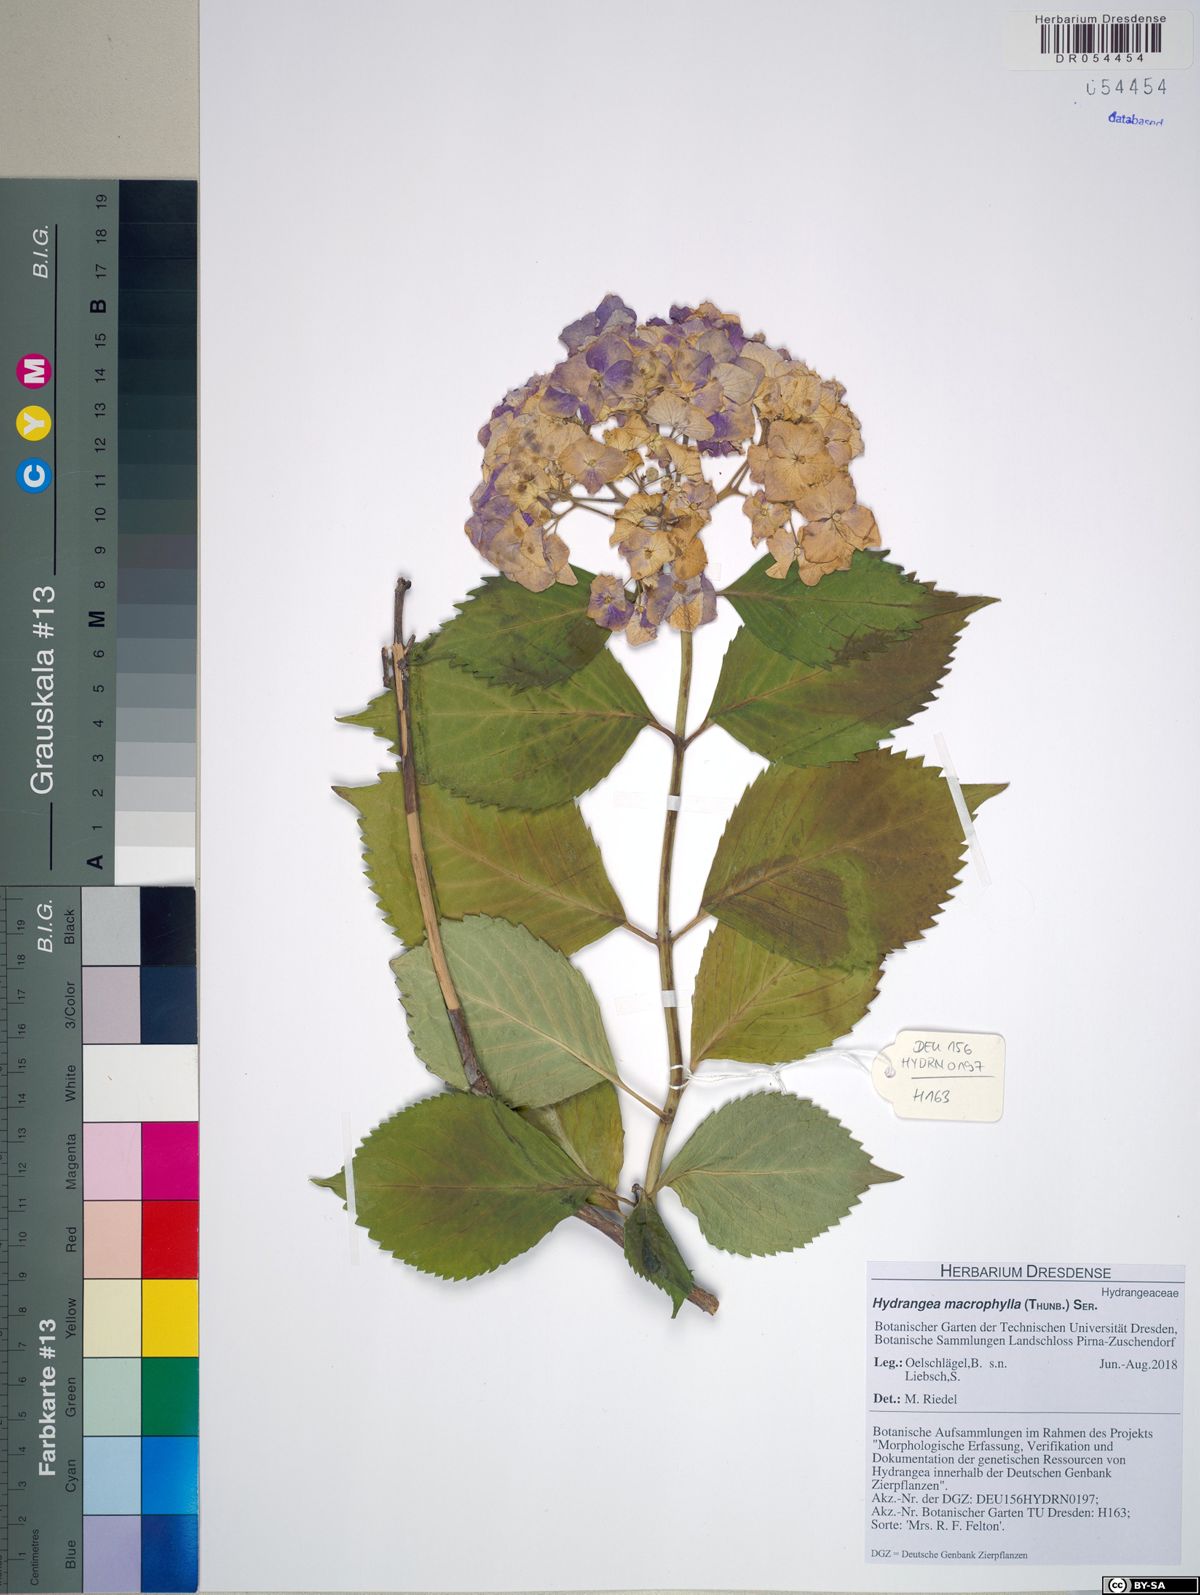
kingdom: Plantae
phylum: Tracheophyta
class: Magnoliopsida
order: Cornales
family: Hydrangeaceae
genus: Hydrangea
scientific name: Hydrangea macrophylla
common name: Hydrangea
